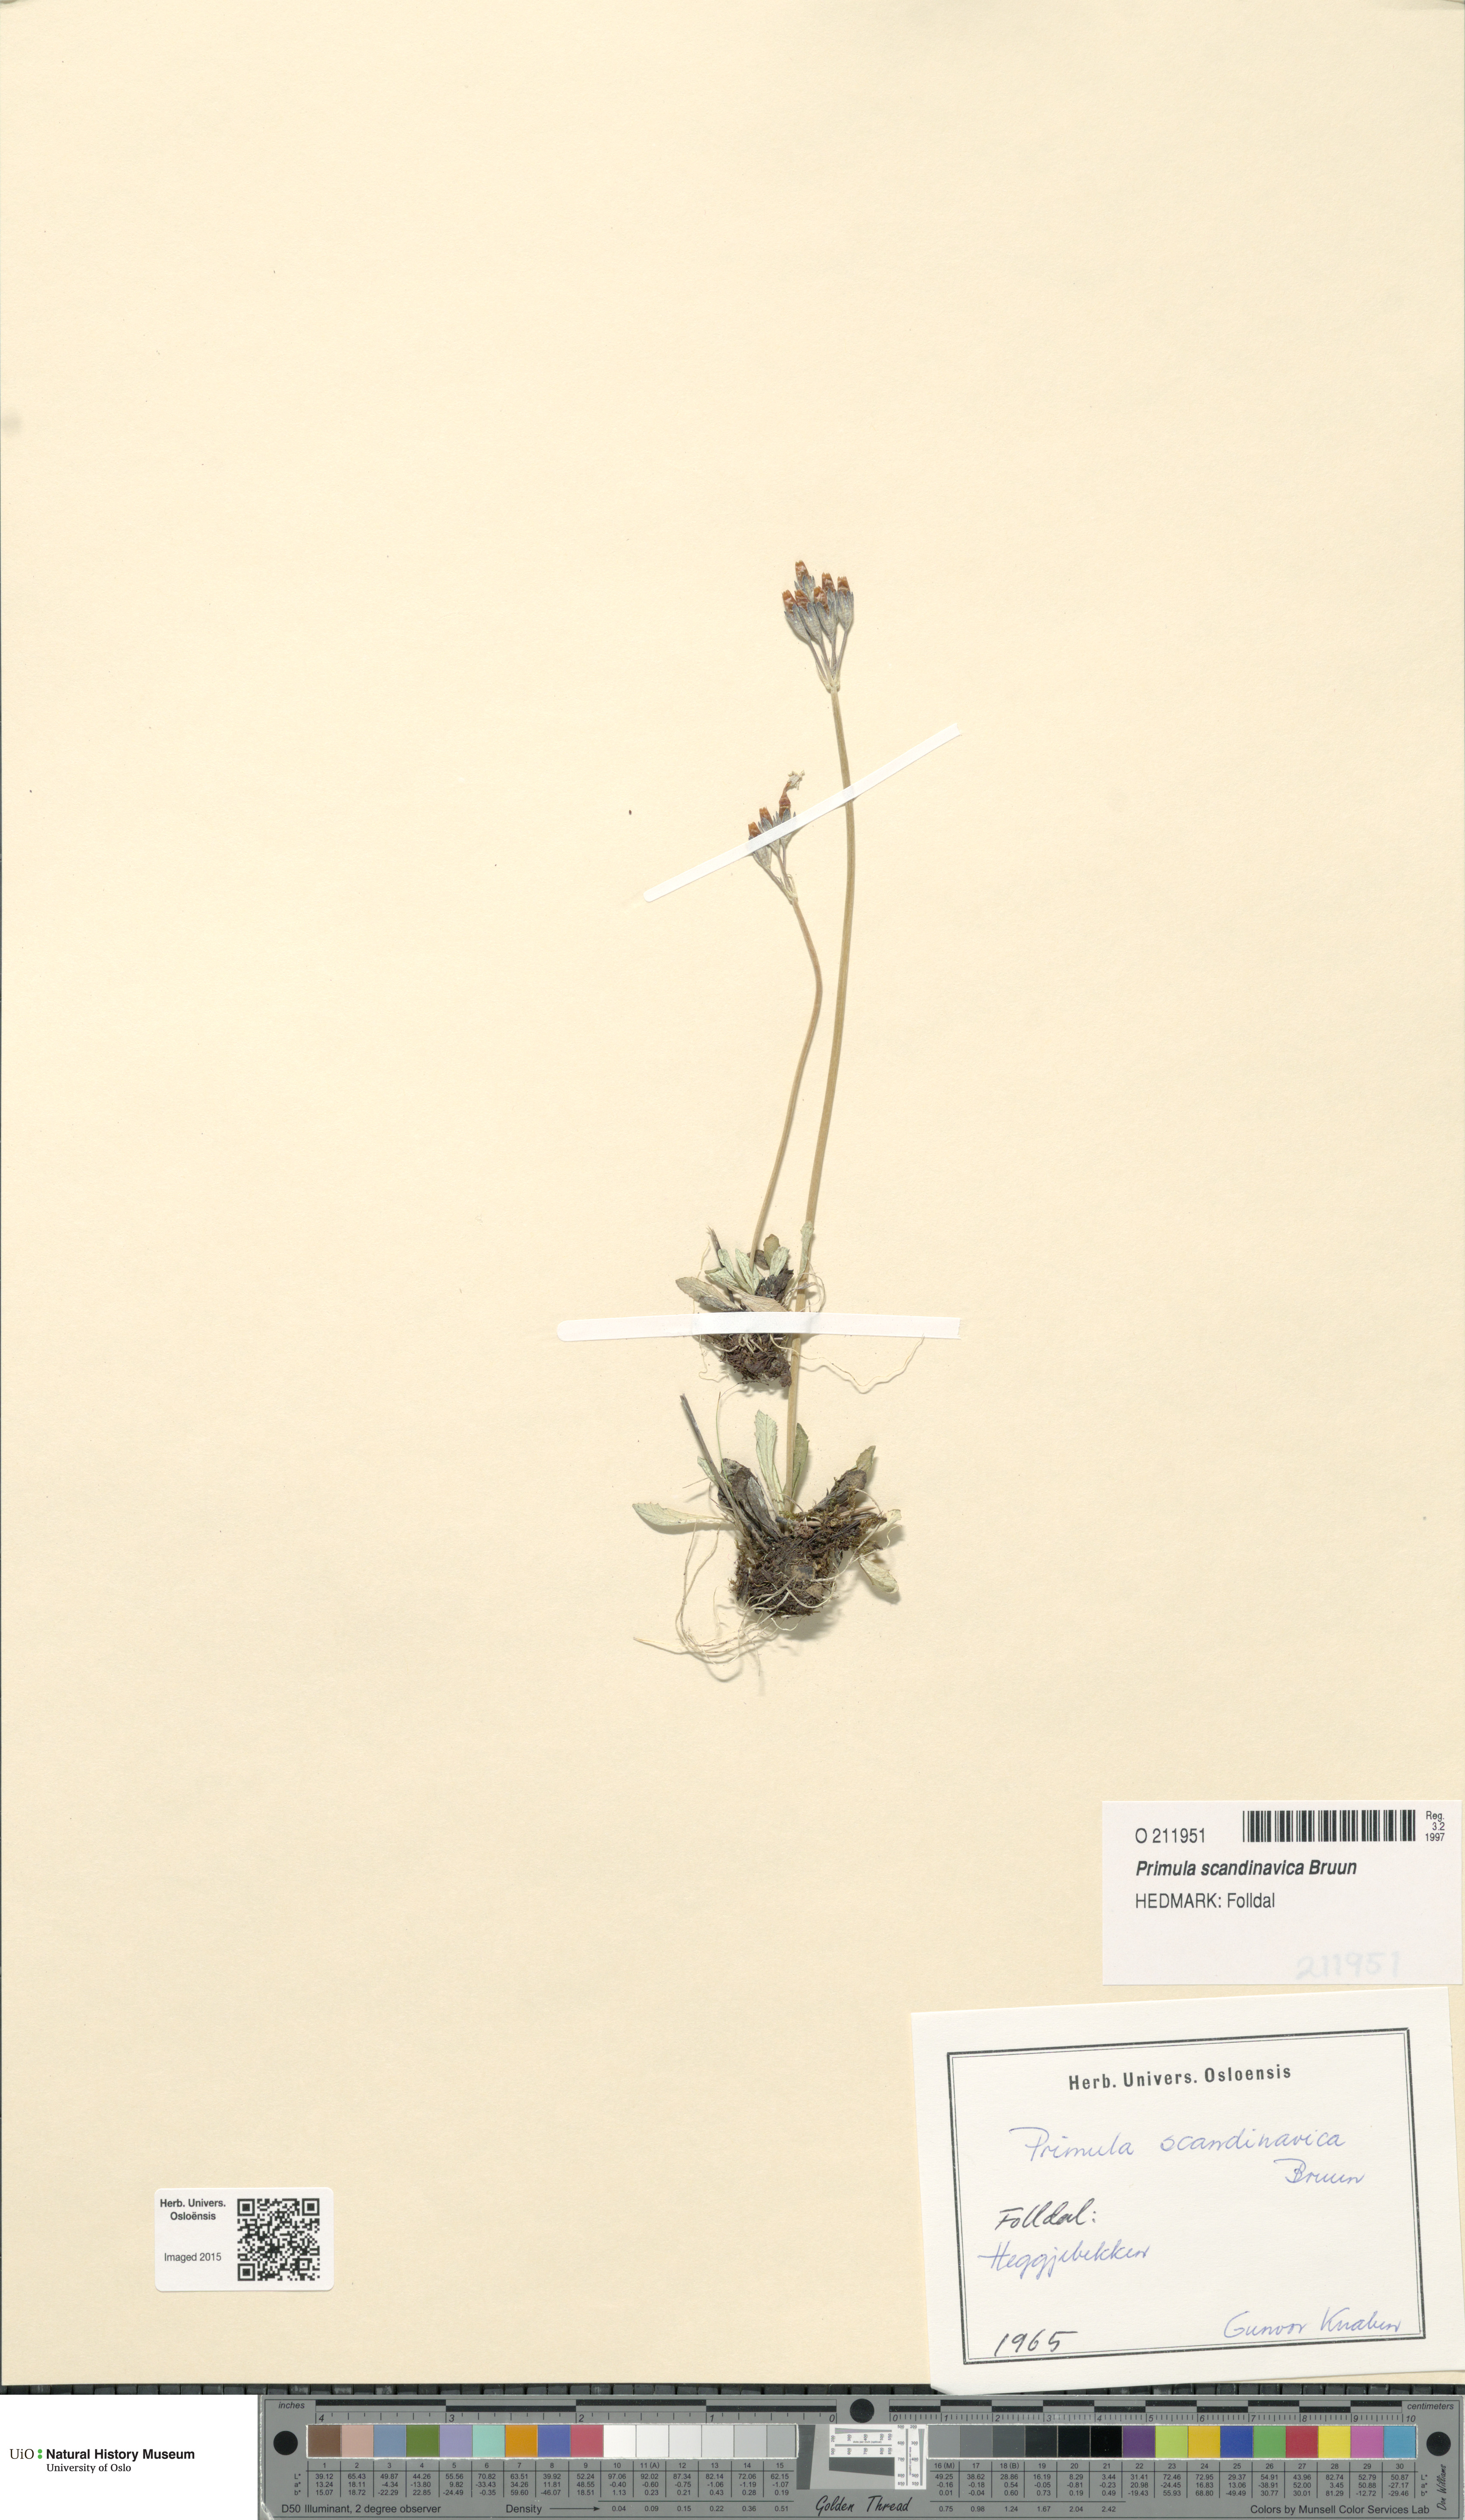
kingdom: Plantae
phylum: Tracheophyta
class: Magnoliopsida
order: Ericales
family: Primulaceae
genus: Primula
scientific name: Primula scandinavica
